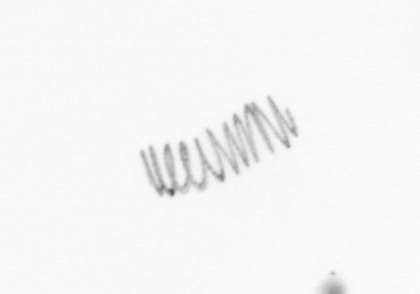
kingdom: Chromista
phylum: Ochrophyta
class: Bacillariophyceae
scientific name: Bacillariophyceae
